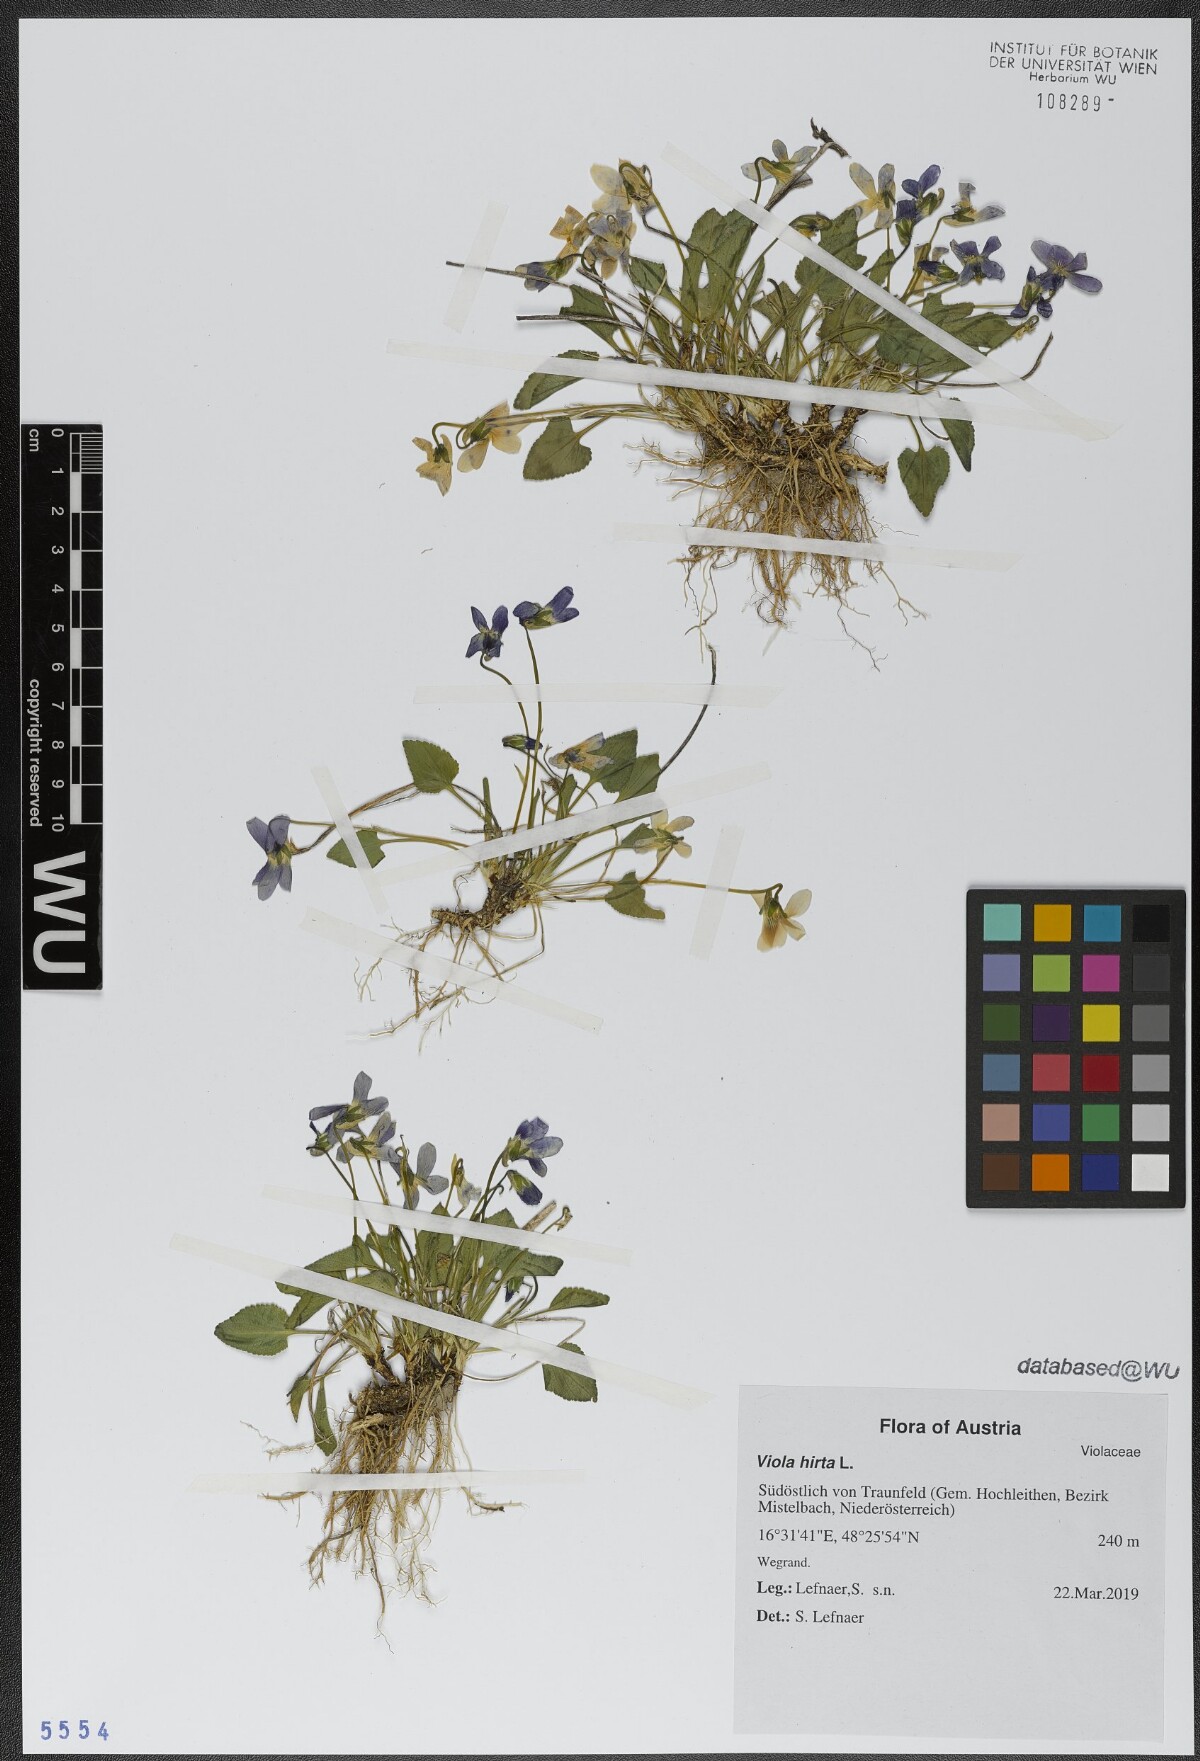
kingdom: Plantae
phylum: Tracheophyta
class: Magnoliopsida
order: Malpighiales
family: Violaceae
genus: Viola
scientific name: Viola hirta
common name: Hairy violet
